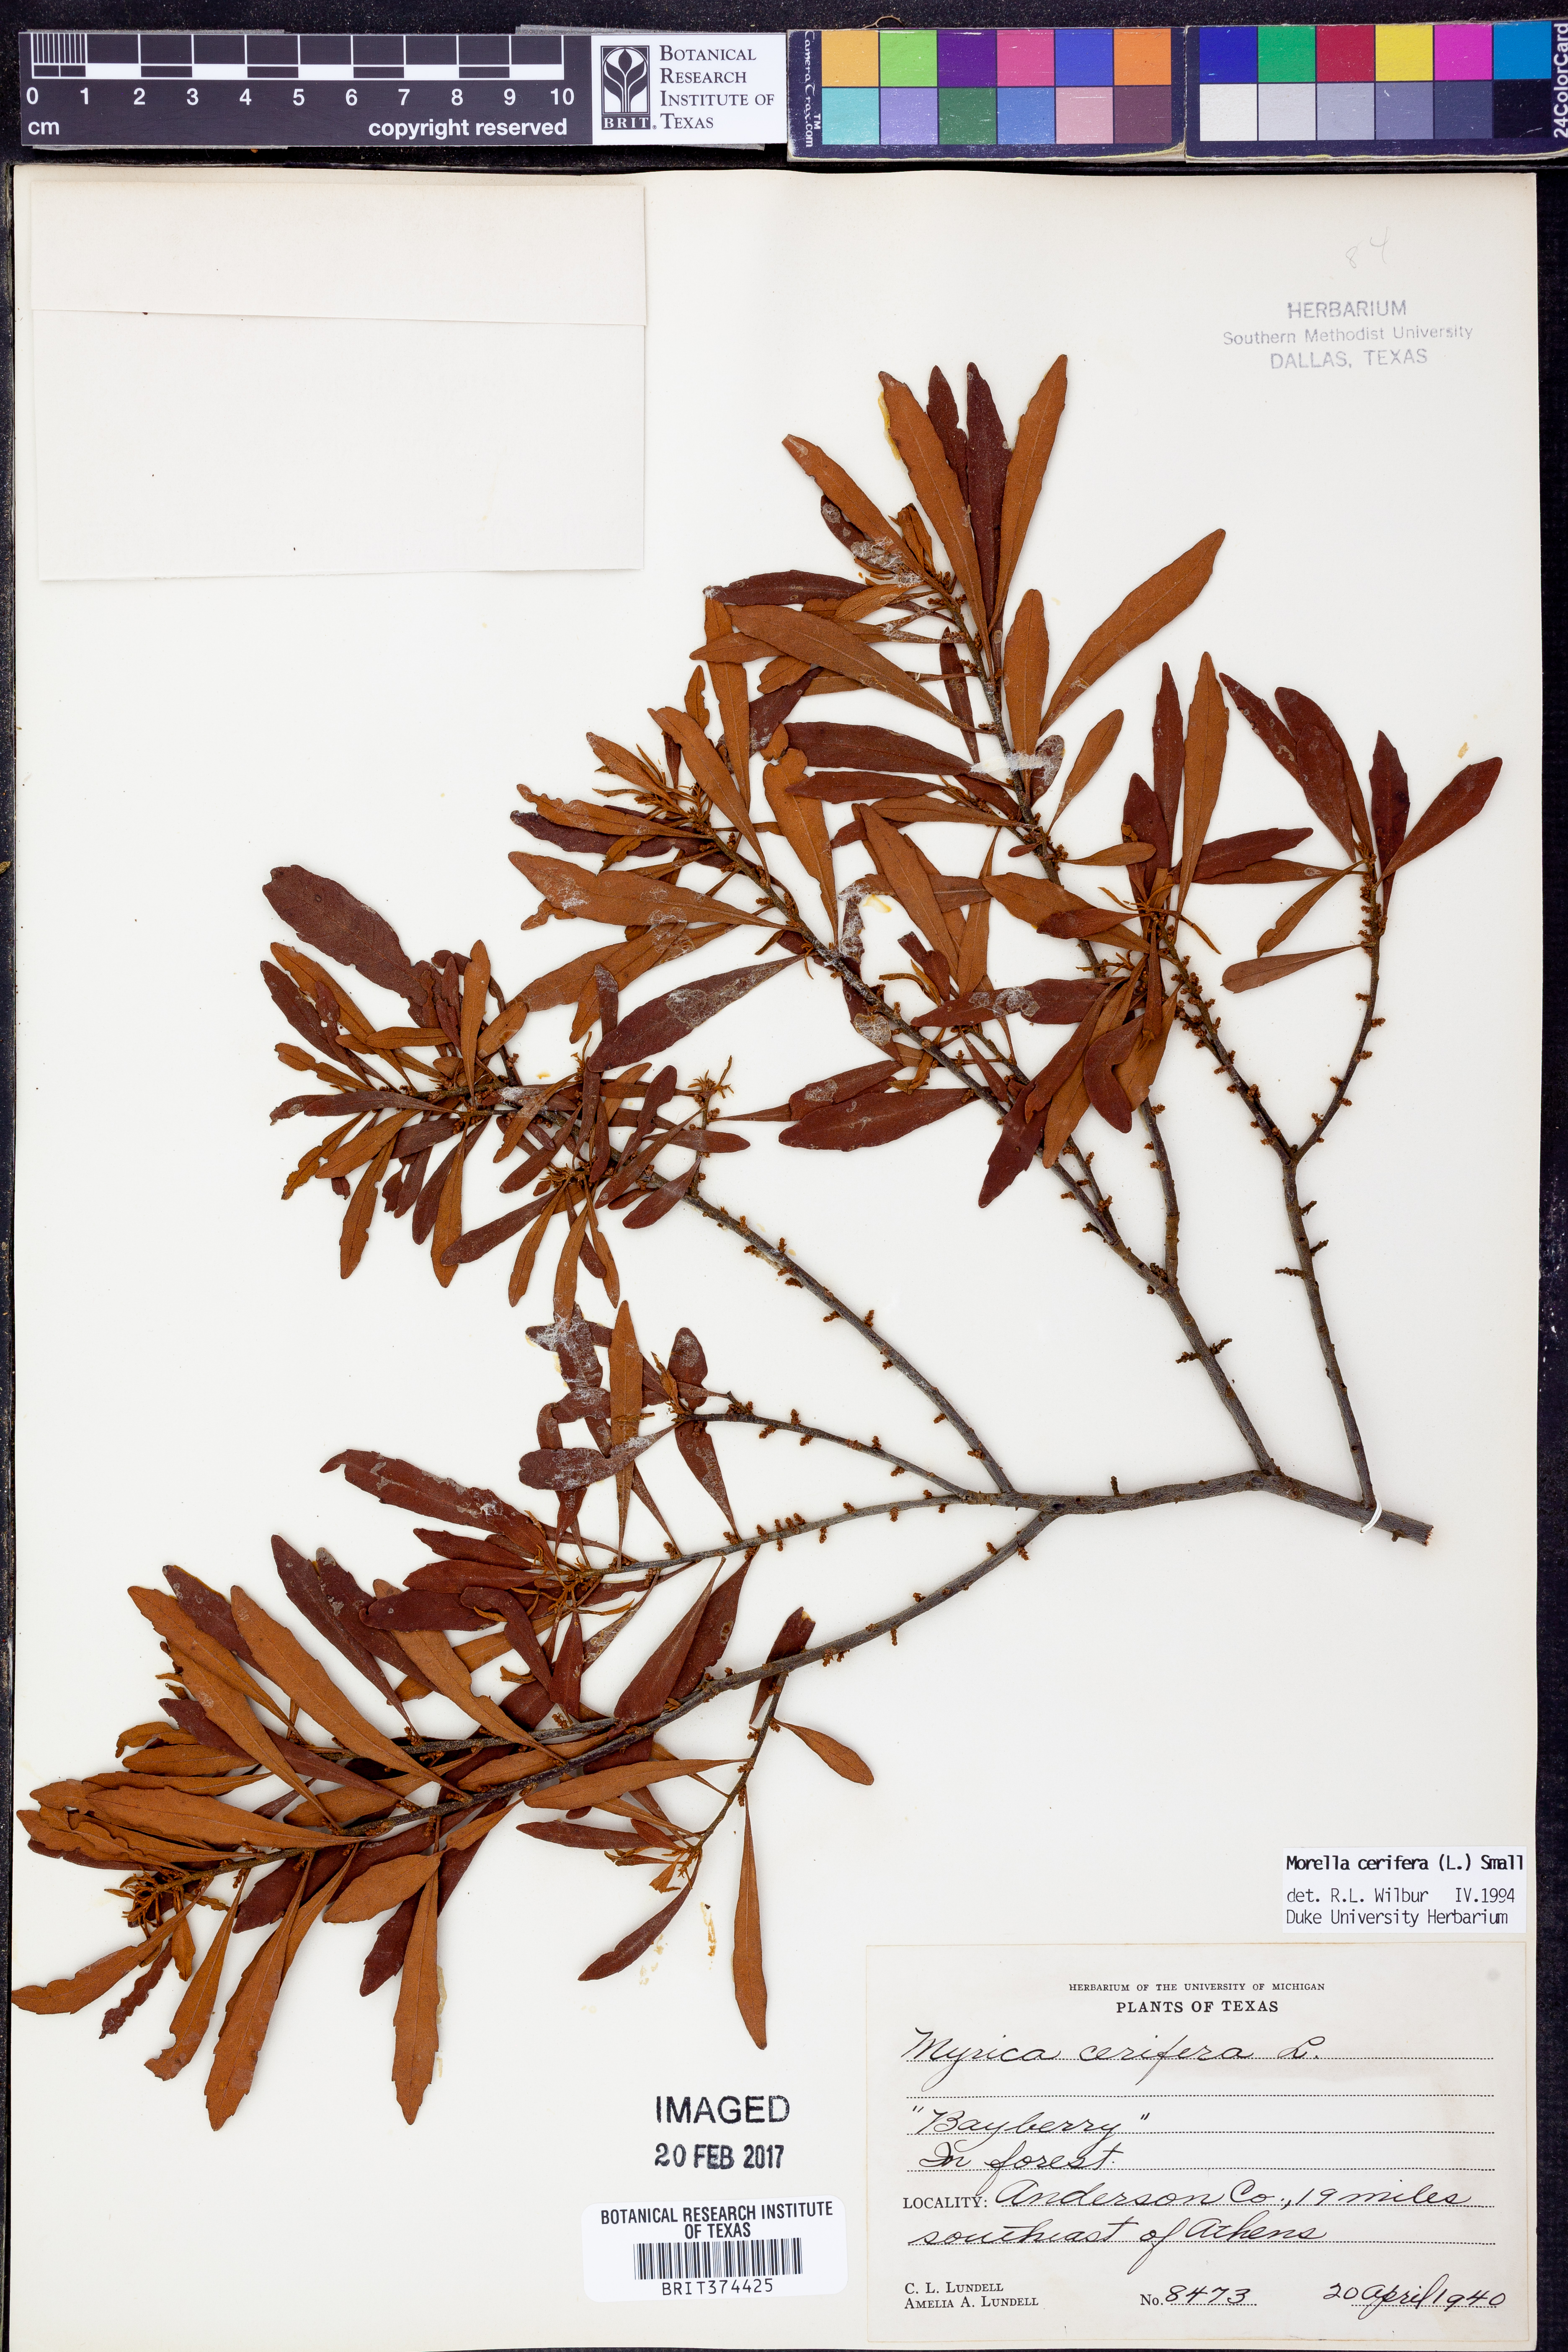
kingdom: Plantae
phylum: Tracheophyta
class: Magnoliopsida
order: Fagales
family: Myricaceae
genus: Morella
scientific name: Morella cerifera
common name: Wax myrtle
